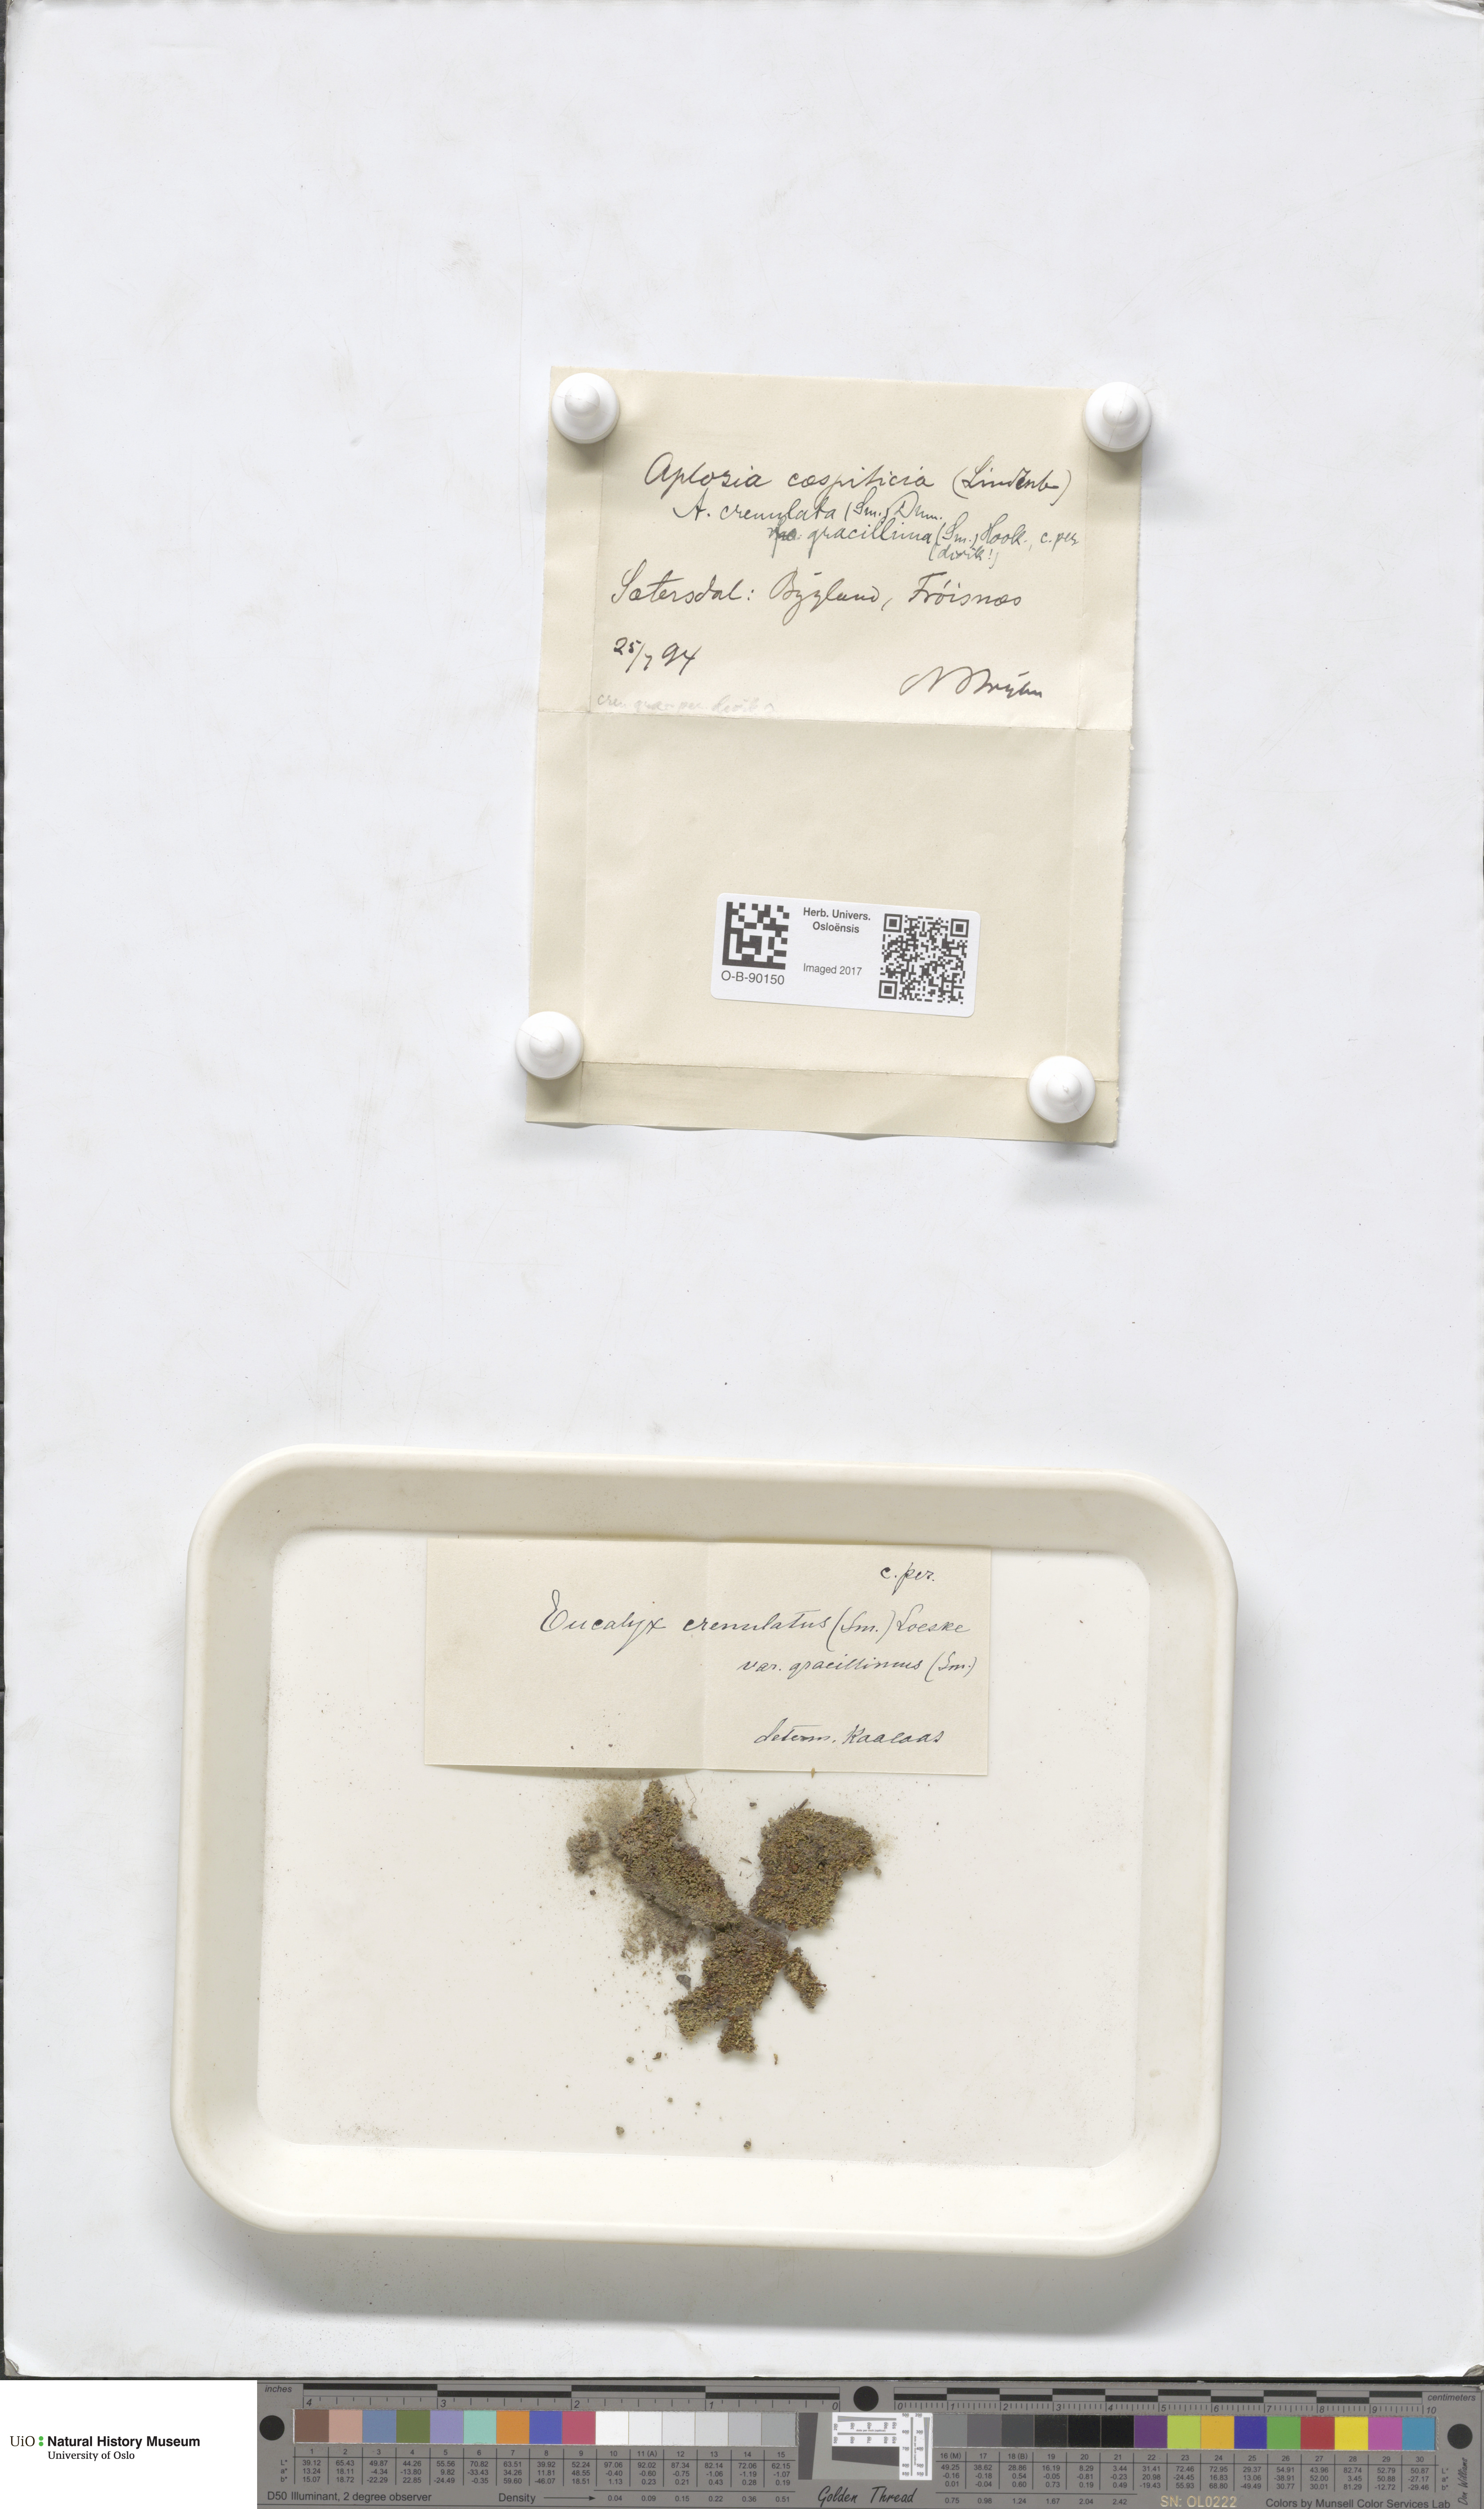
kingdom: Plantae
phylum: Marchantiophyta
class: Jungermanniopsida
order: Jungermanniales
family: Solenostomataceae
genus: Solenostoma
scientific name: Solenostoma gracillimum
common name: Crenulated flapwort
